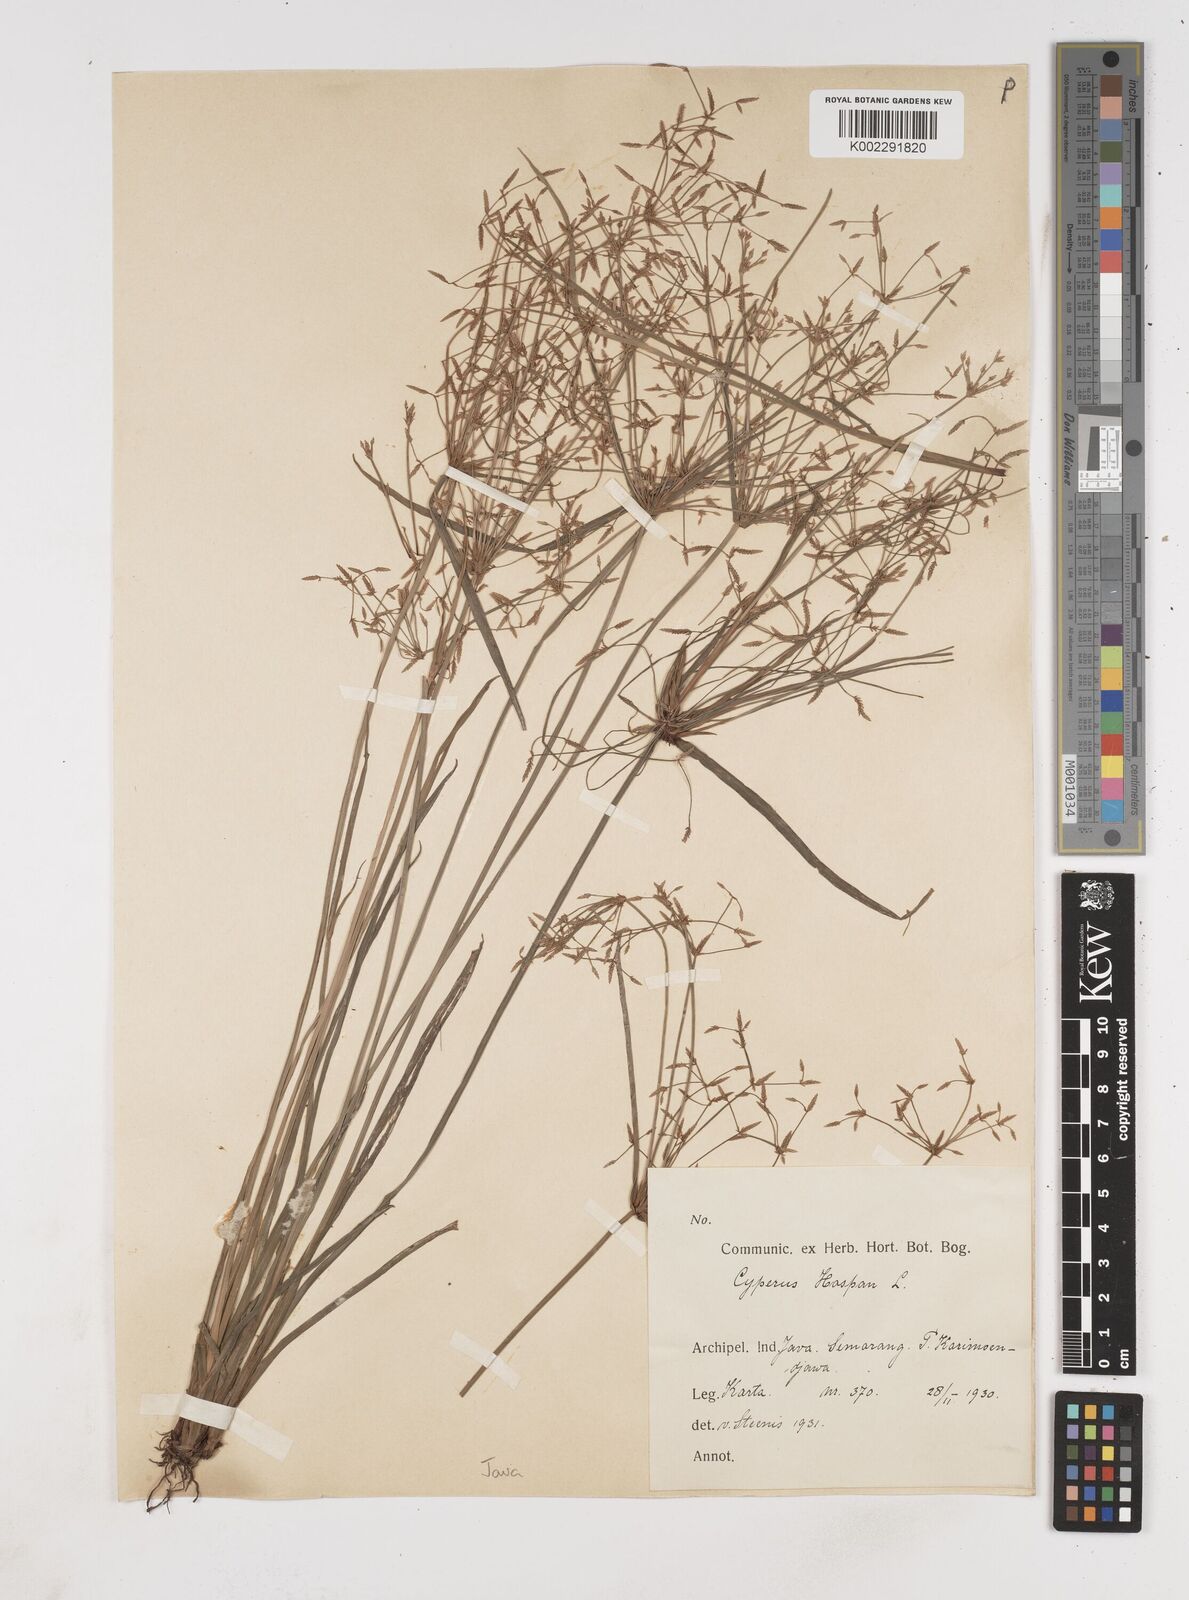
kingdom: Plantae
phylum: Tracheophyta
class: Liliopsida
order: Poales
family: Cyperaceae
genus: Cyperus
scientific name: Cyperus haspan
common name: Haspan flatsedge
